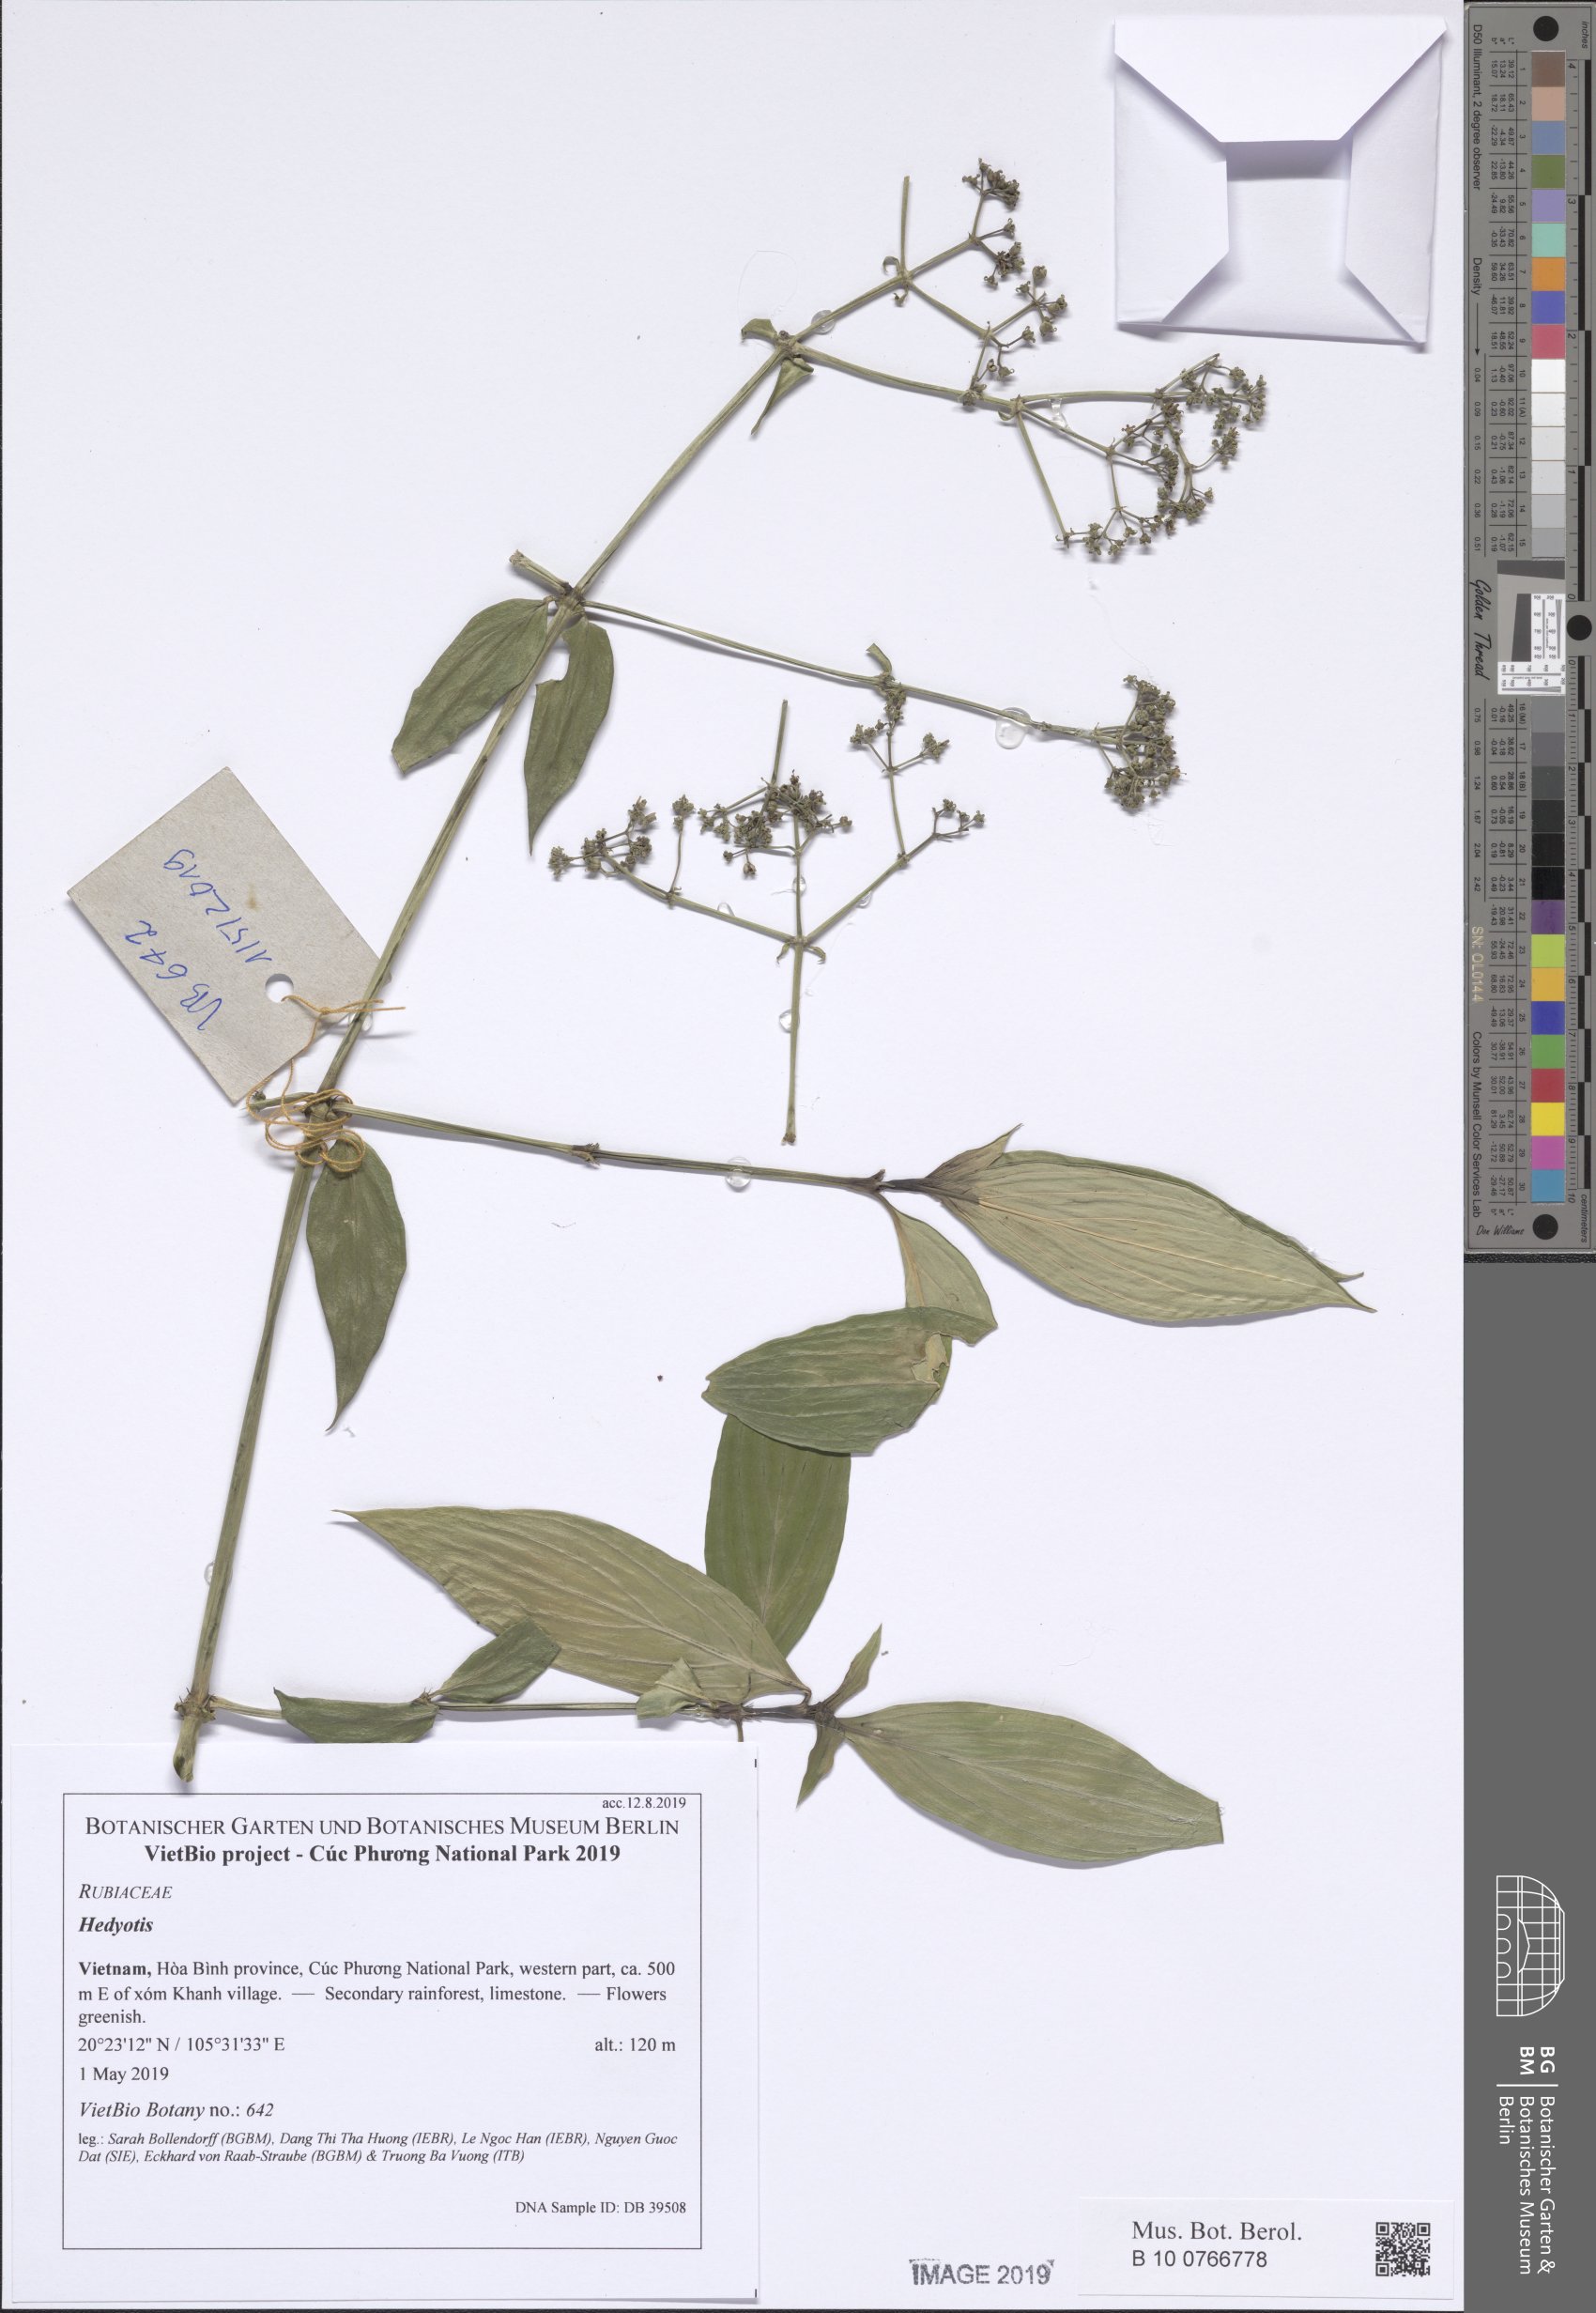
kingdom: Plantae
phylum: Tracheophyta
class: Magnoliopsida
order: Gentianales
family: Rubiaceae
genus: Dimetia
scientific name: Dimetia ampliflora
